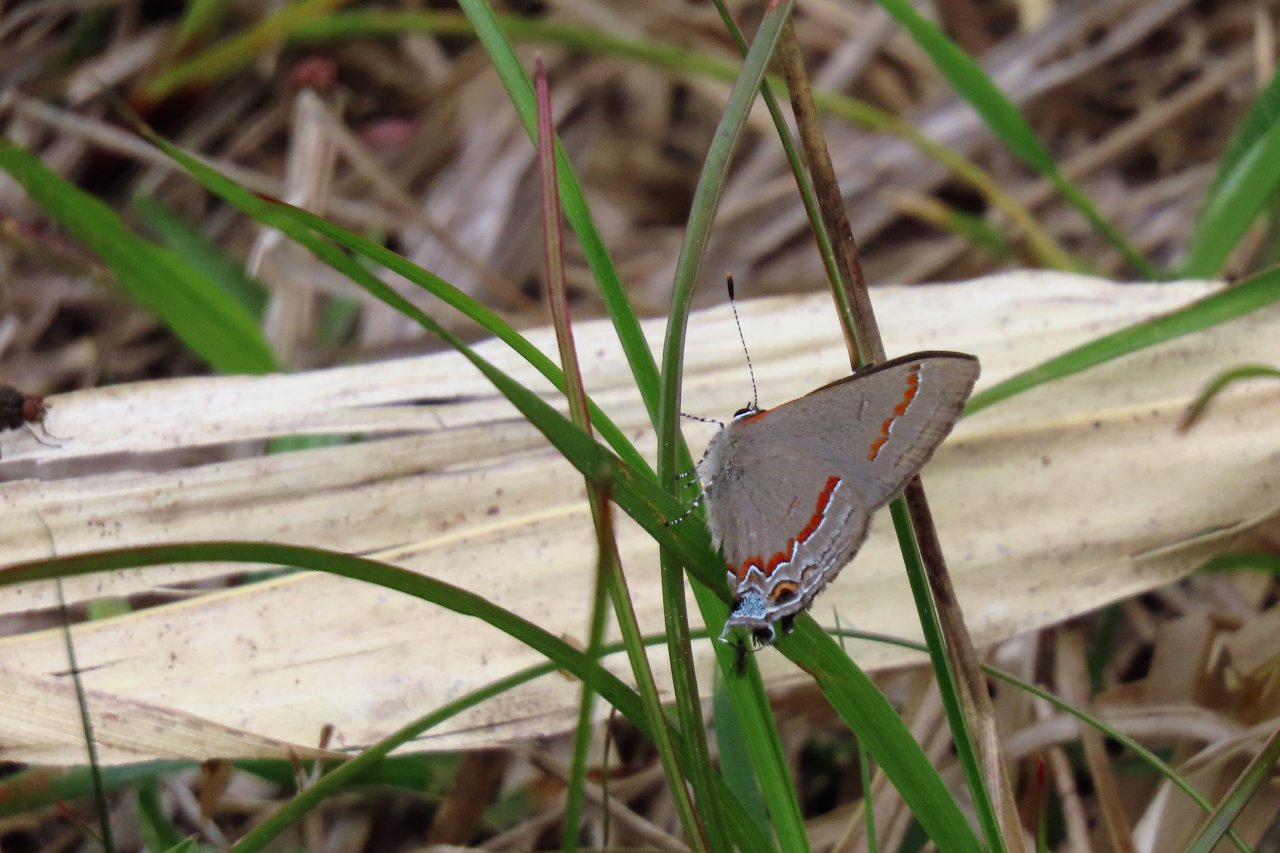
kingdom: Animalia
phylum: Arthropoda
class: Insecta
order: Lepidoptera
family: Lycaenidae
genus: Calycopis
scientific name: Calycopis cecrops
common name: Red-banded Hairstreak
